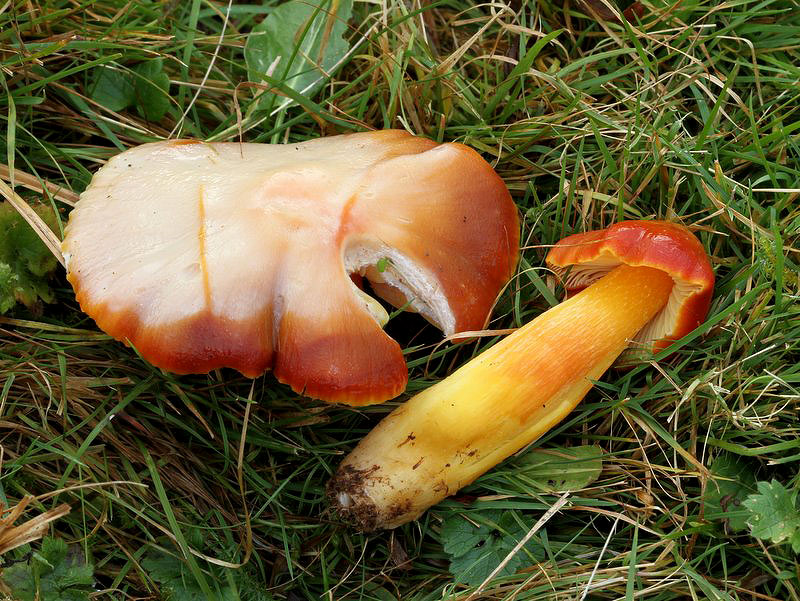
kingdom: Fungi
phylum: Basidiomycota
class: Agaricomycetes
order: Agaricales
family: Hygrophoraceae
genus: Hygrocybe
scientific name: Hygrocybe punicea
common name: skarlagen-vokshat
